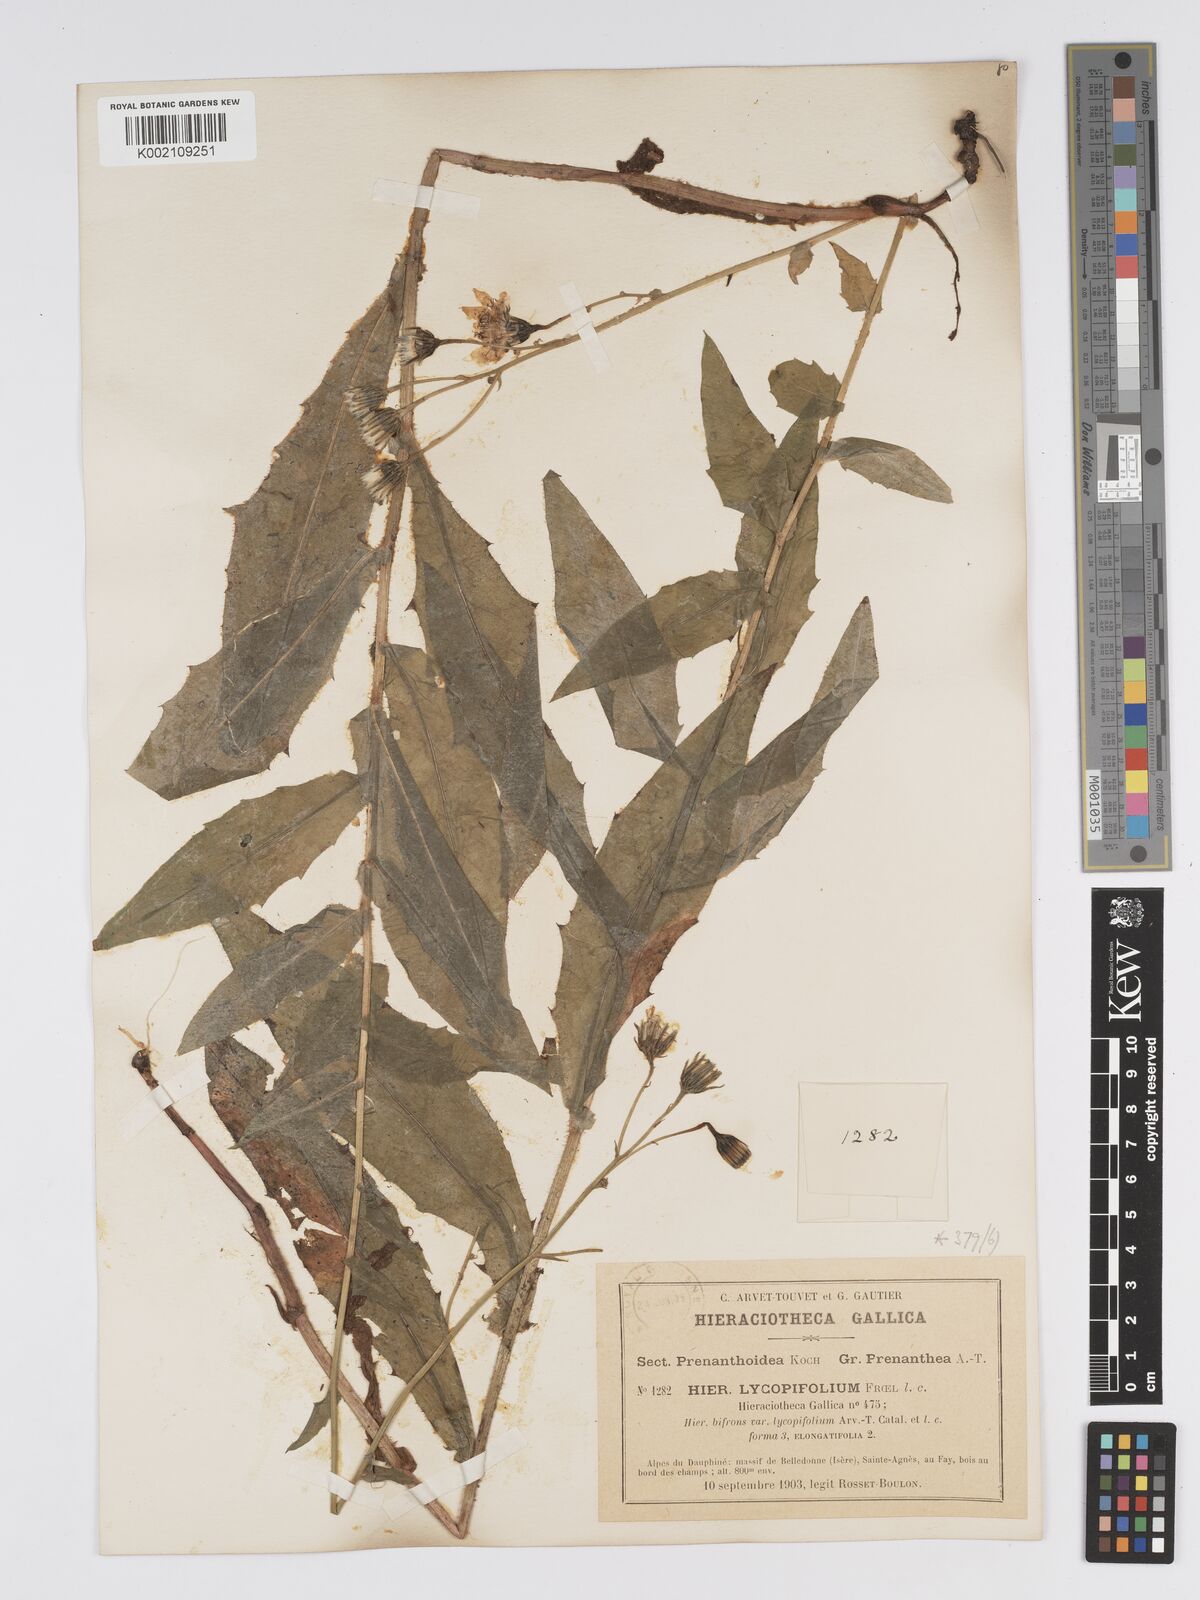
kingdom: Plantae
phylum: Tracheophyta
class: Magnoliopsida
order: Asterales
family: Asteraceae
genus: Hieracium
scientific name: Hieracium lycopifolium
